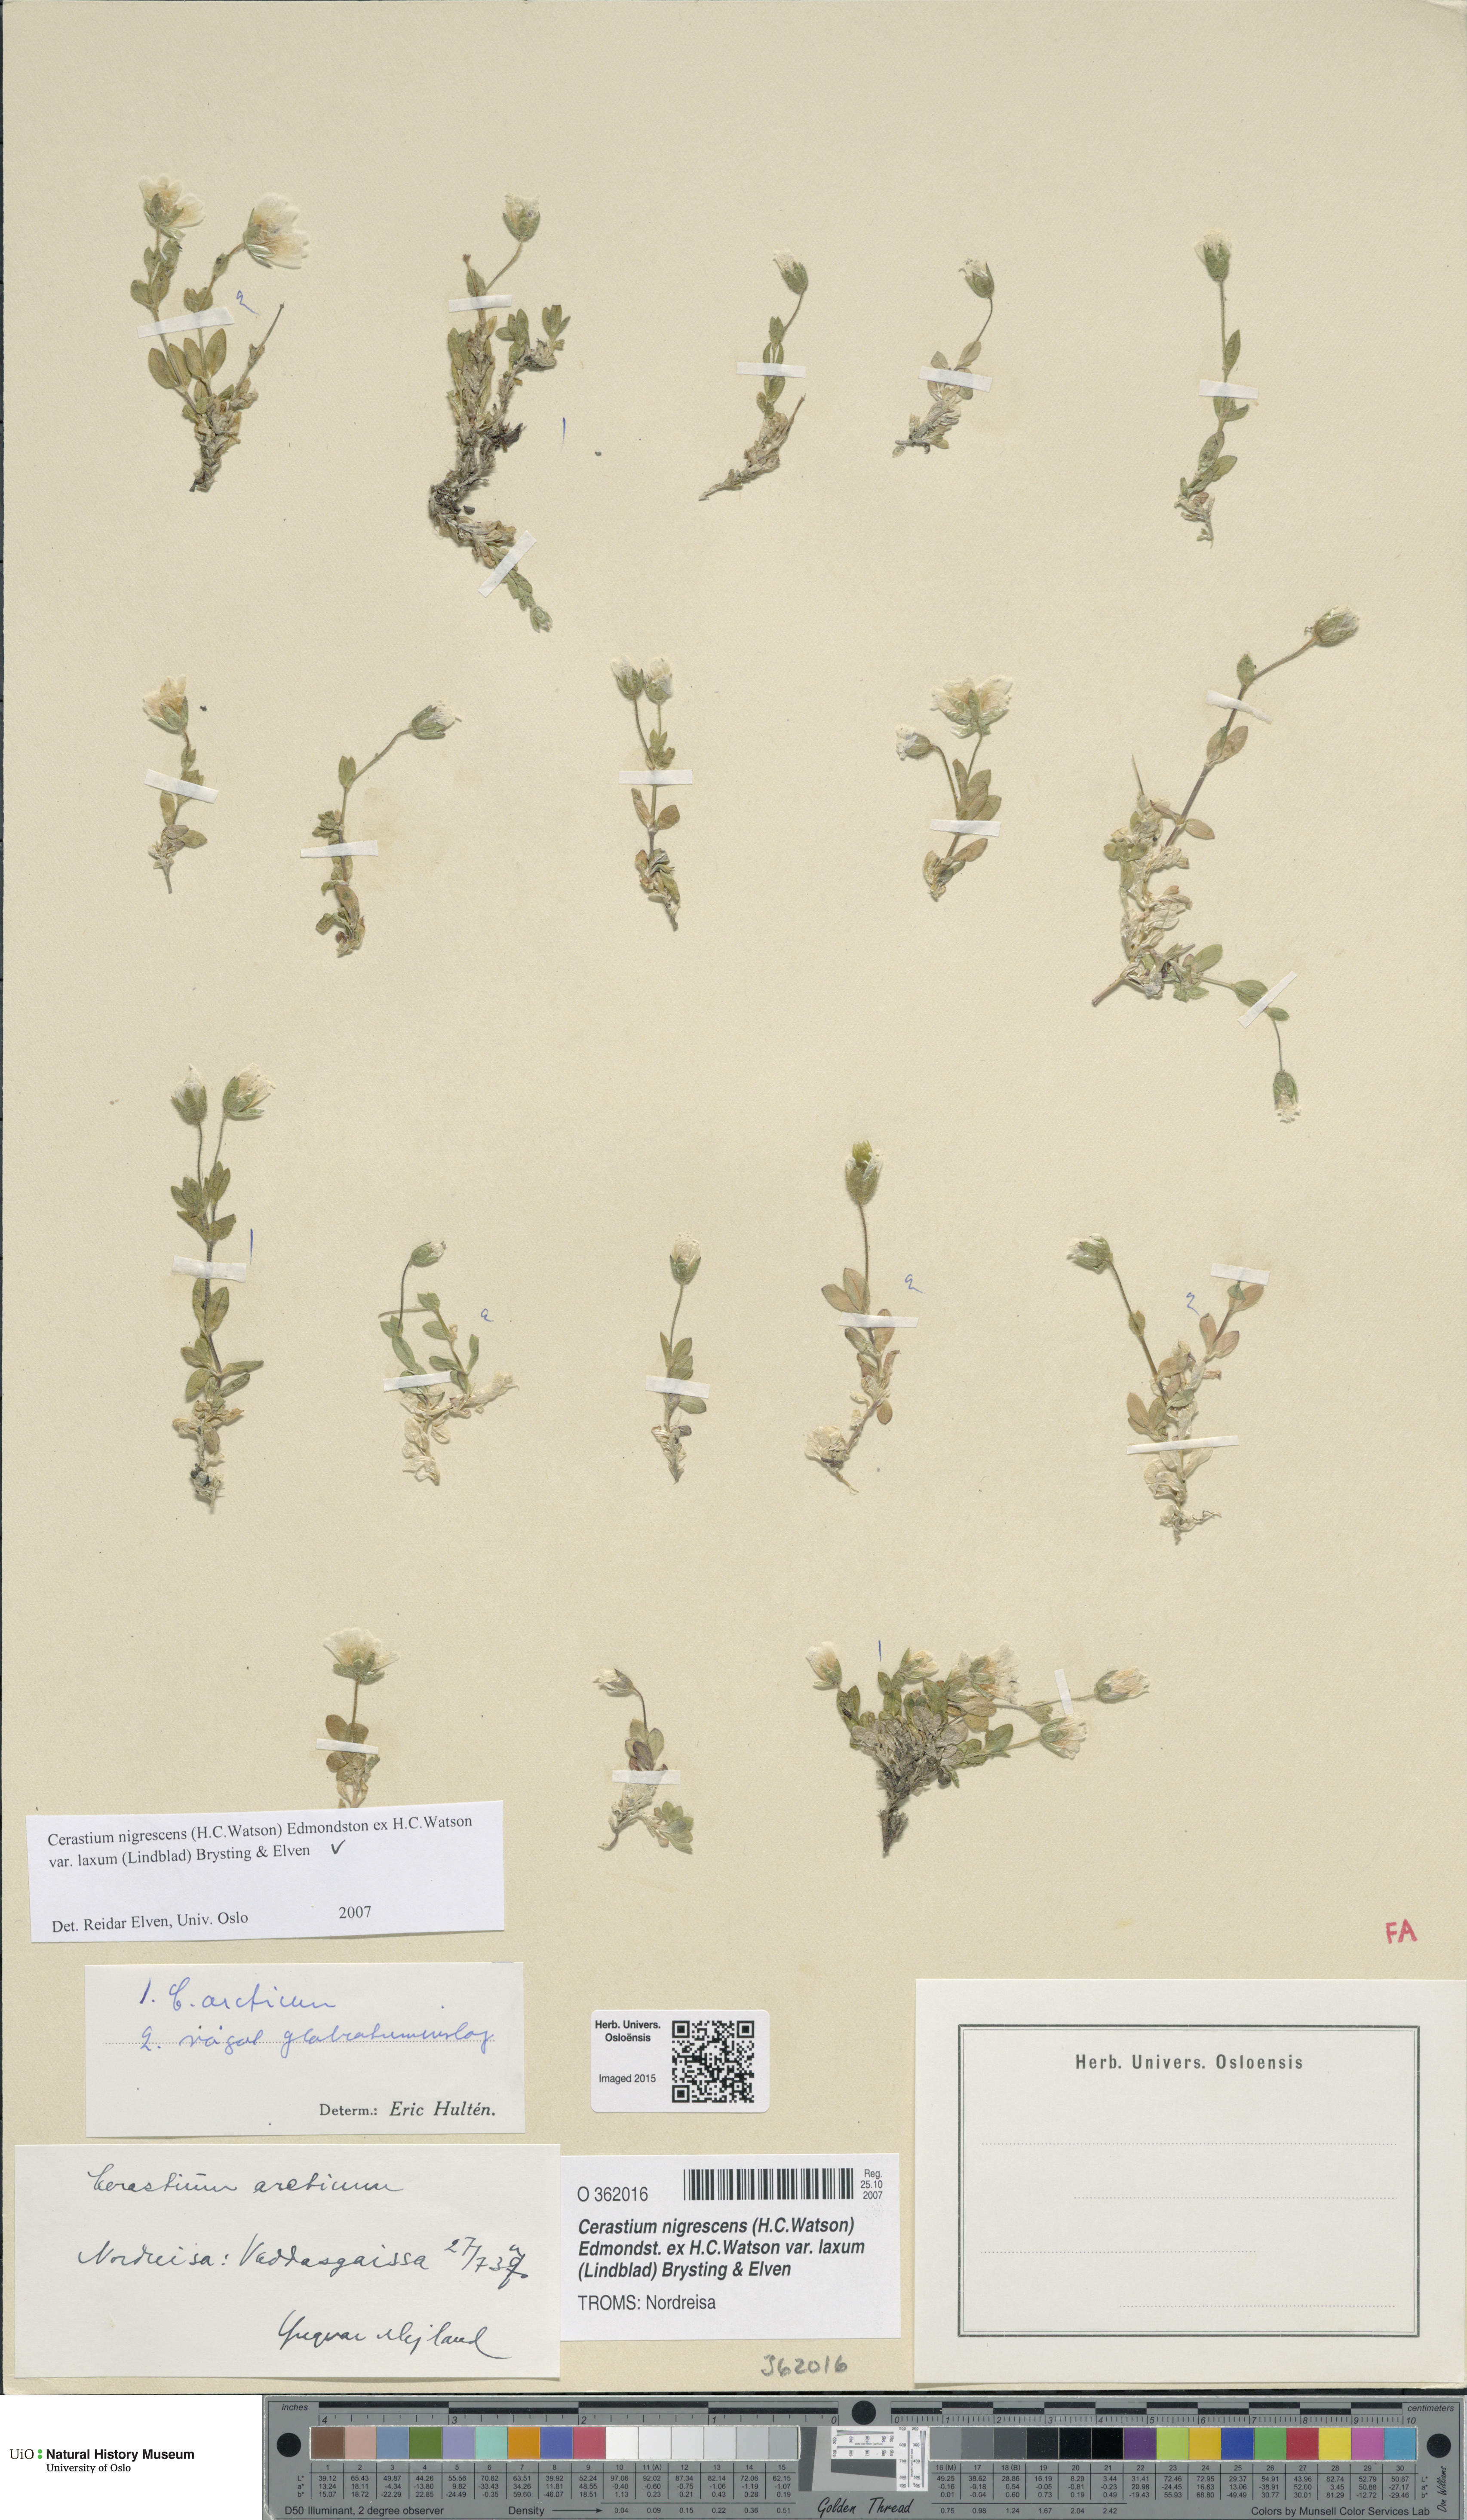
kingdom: Plantae
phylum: Tracheophyta
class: Magnoliopsida
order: Caryophyllales
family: Caryophyllaceae
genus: Cerastium
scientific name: Cerastium nigrescens
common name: Shetland mouse-ear
